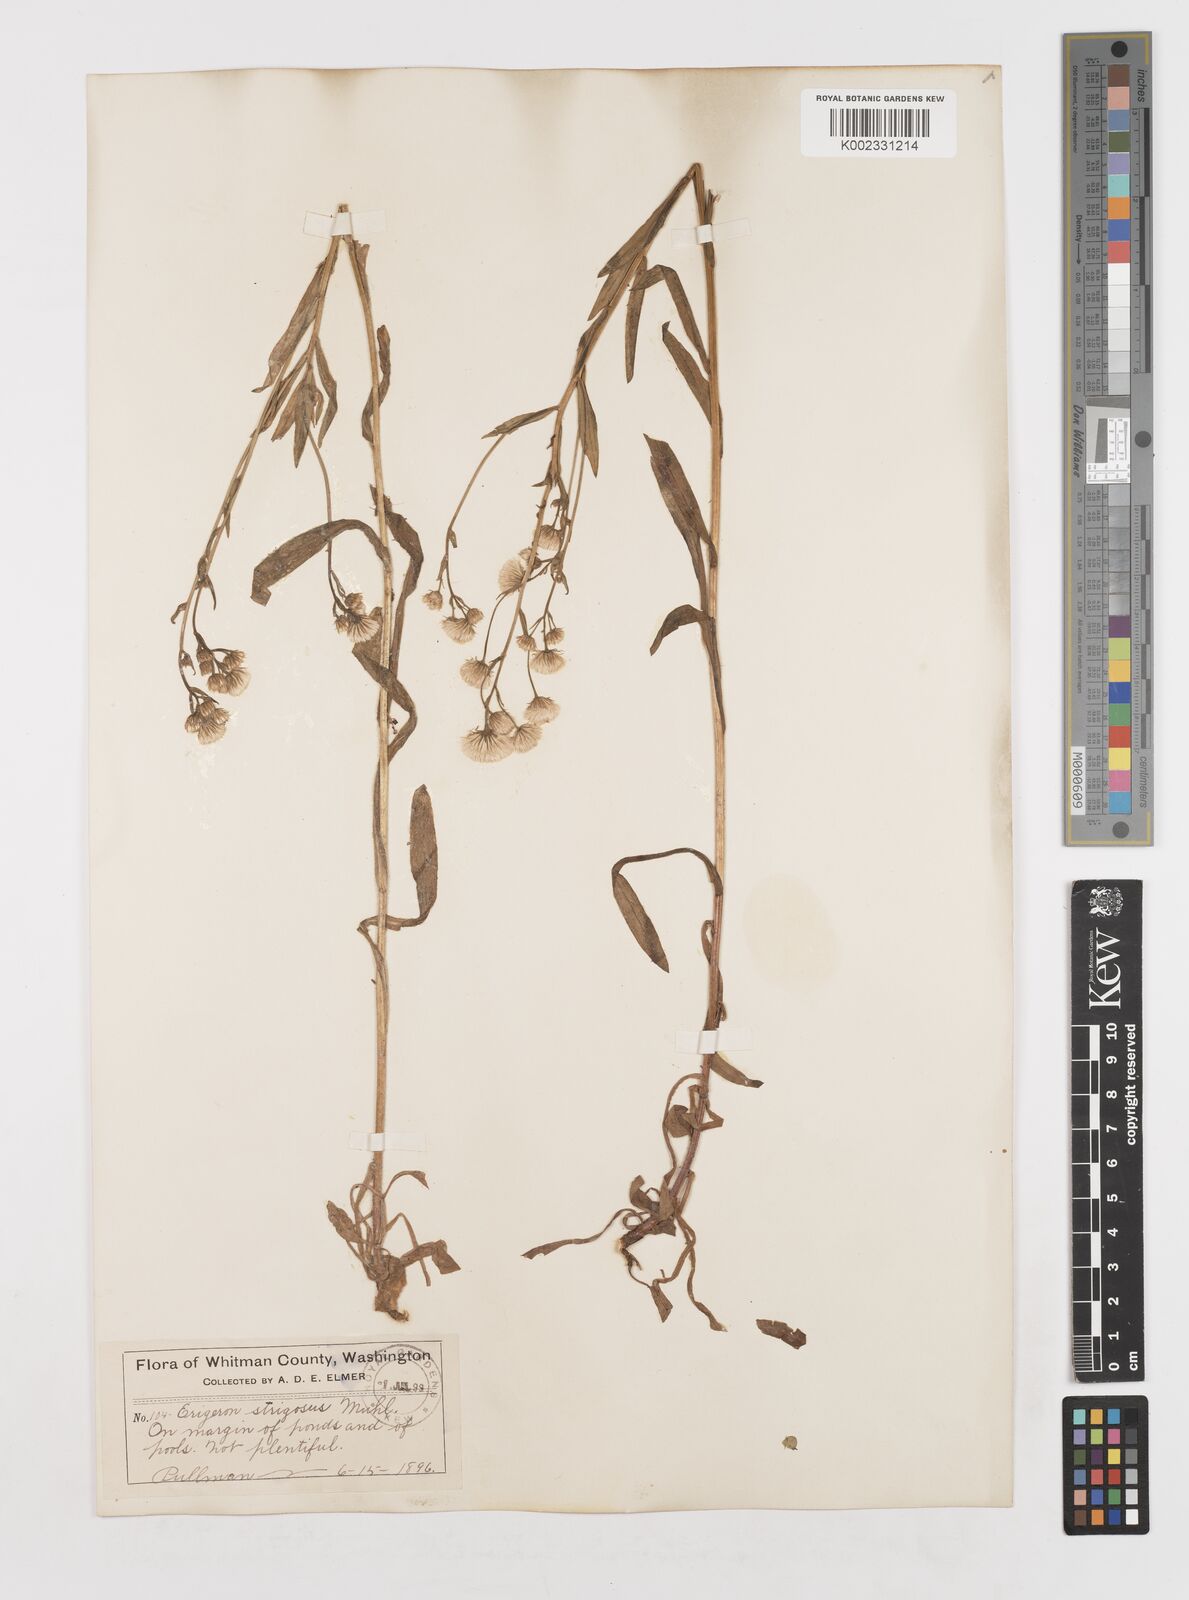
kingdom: Plantae
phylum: Tracheophyta
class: Magnoliopsida
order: Asterales
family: Asteraceae
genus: Erigeron
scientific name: Erigeron annuus
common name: Tall fleabane
